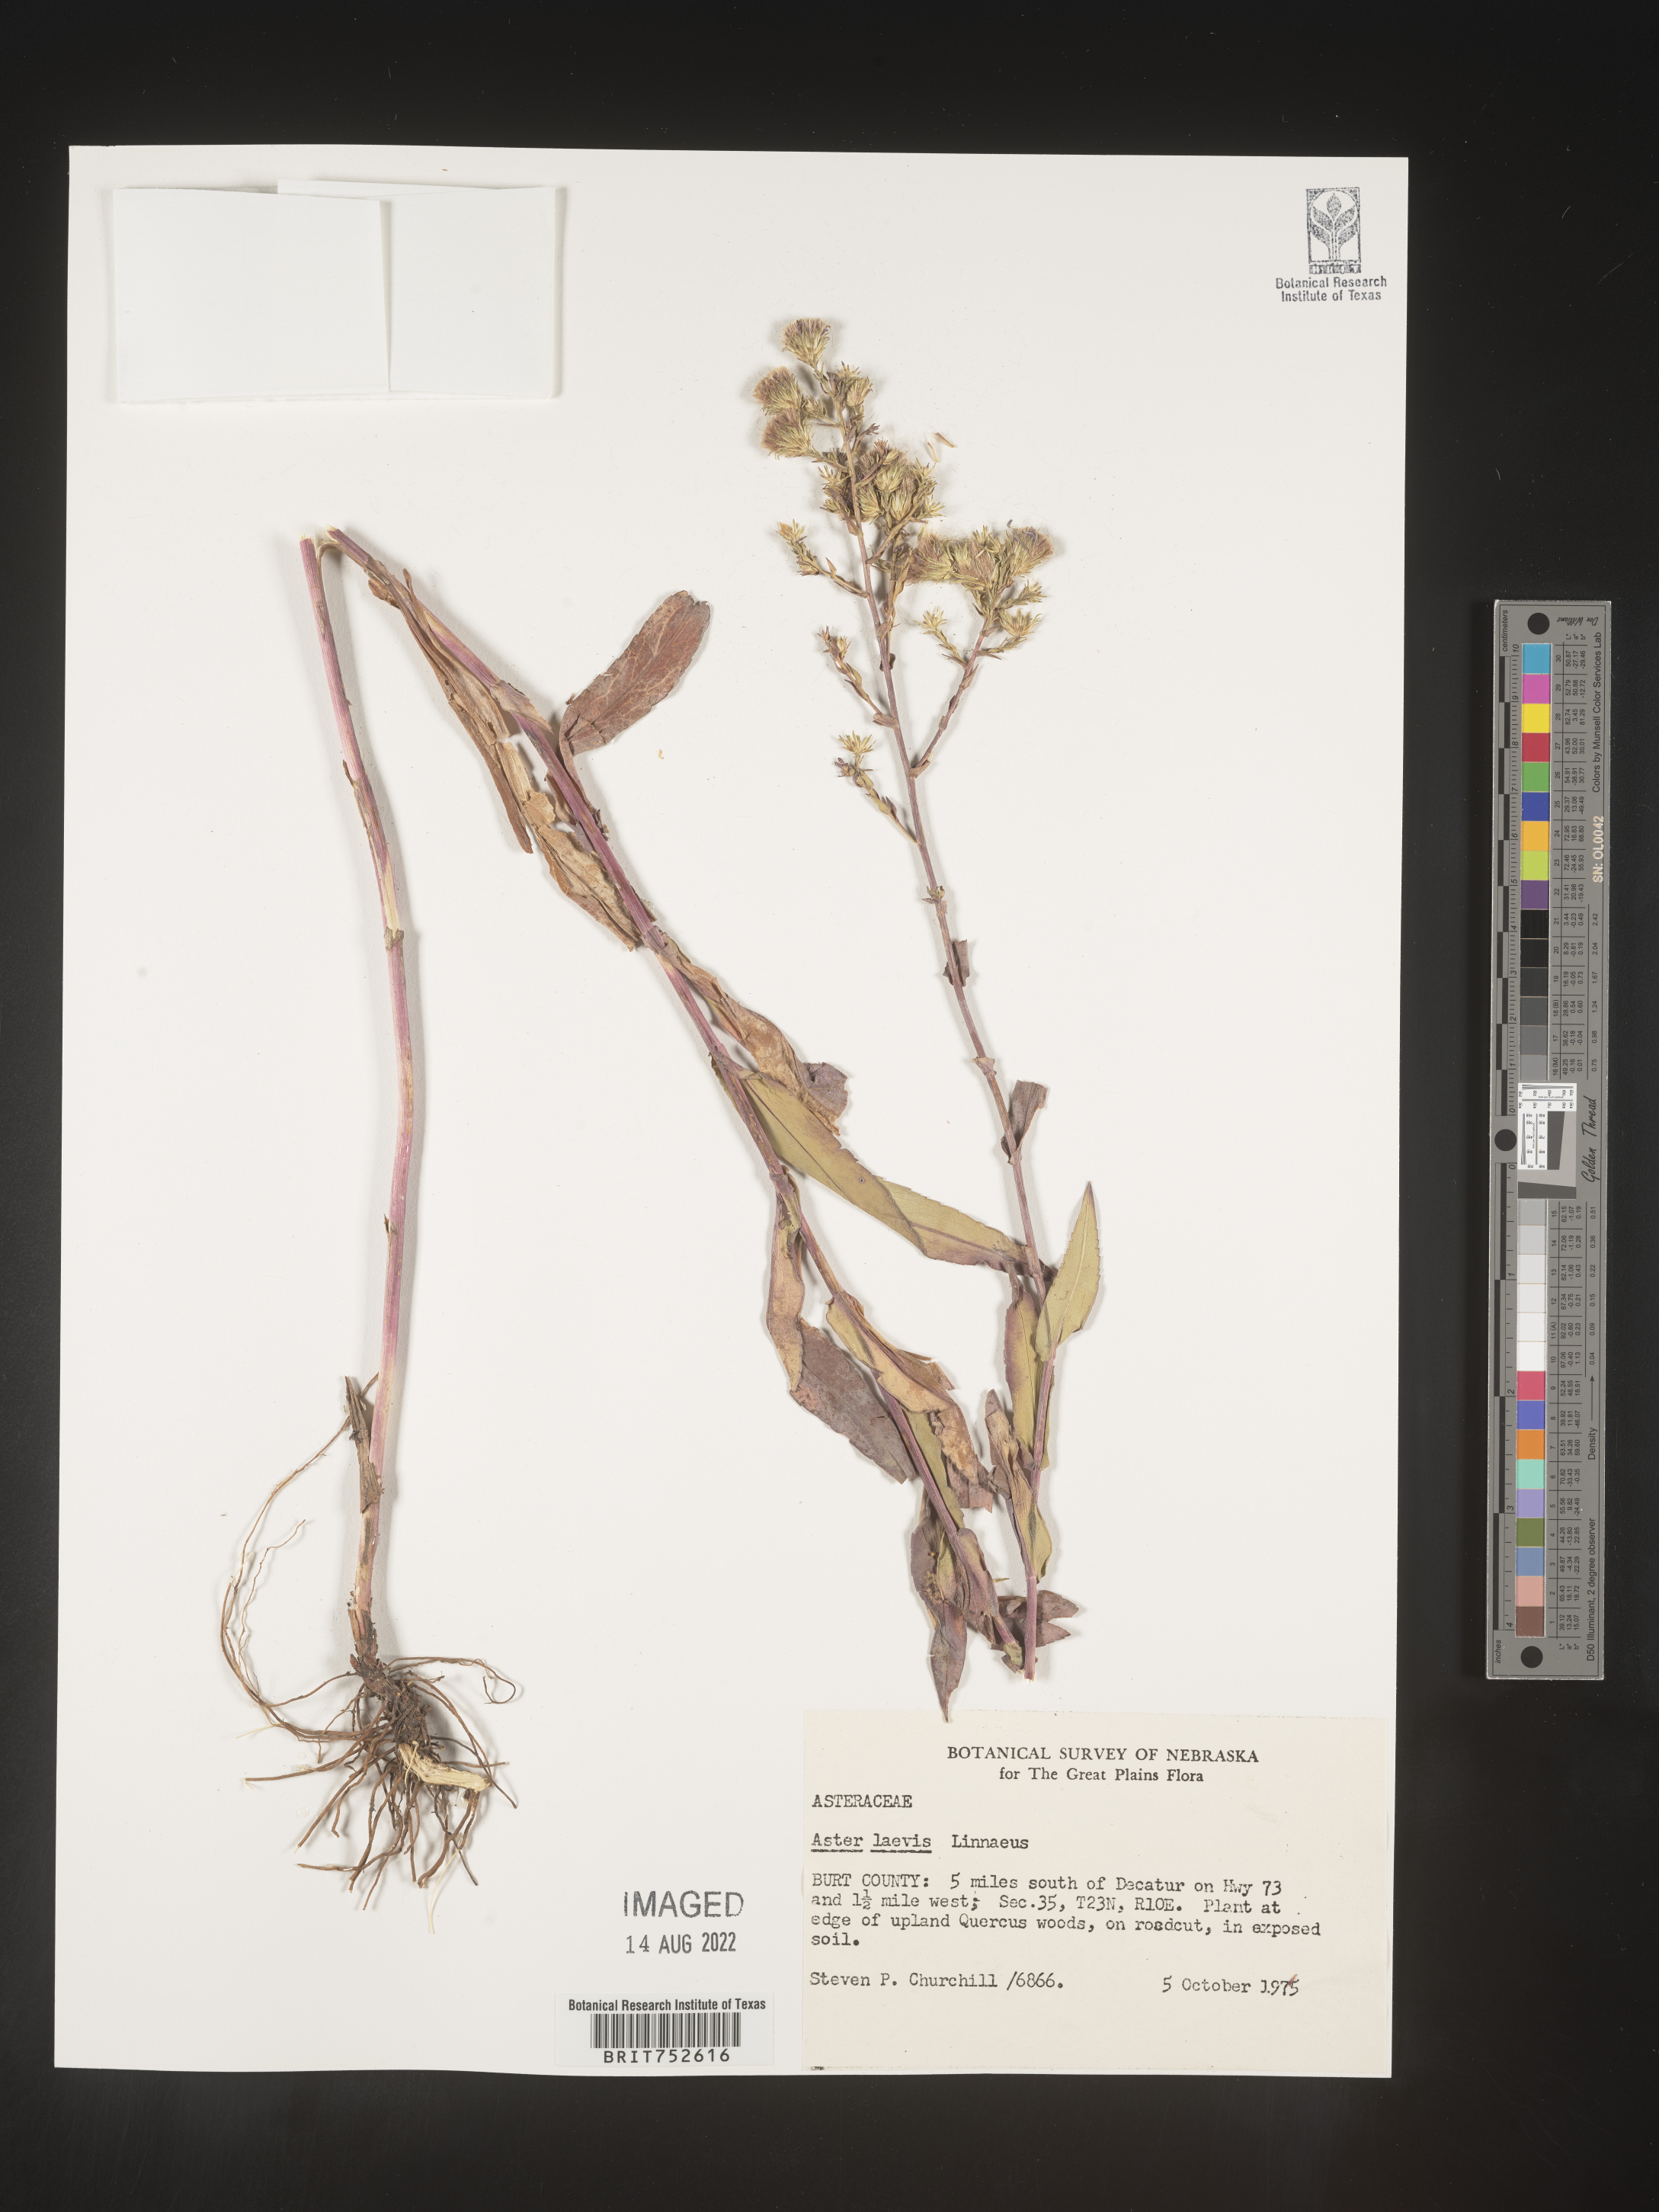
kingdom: Plantae
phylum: Tracheophyta
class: Magnoliopsida
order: Asterales
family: Asteraceae
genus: Symphyotrichum
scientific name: Symphyotrichum laeve
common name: Glaucous aster
